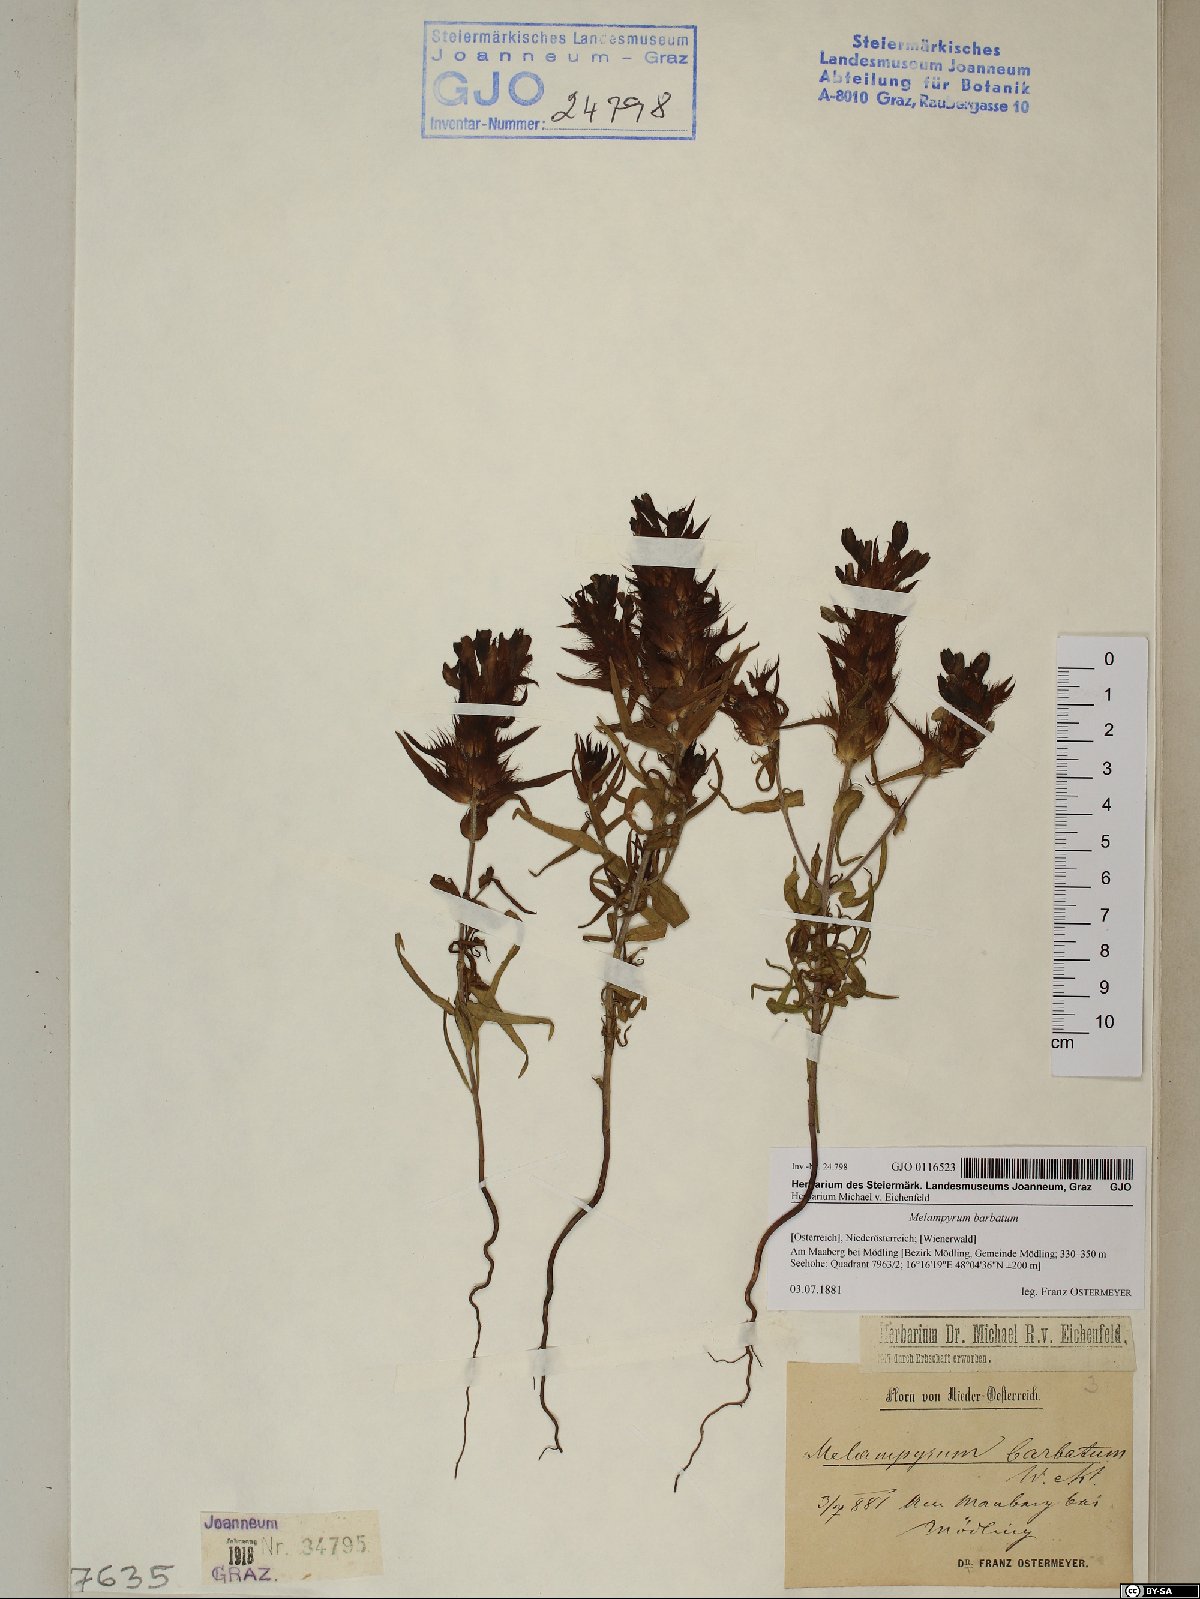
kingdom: Plantae
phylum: Tracheophyta
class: Magnoliopsida
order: Lamiales
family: Orobanchaceae
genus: Melampyrum
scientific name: Melampyrum barbatum
